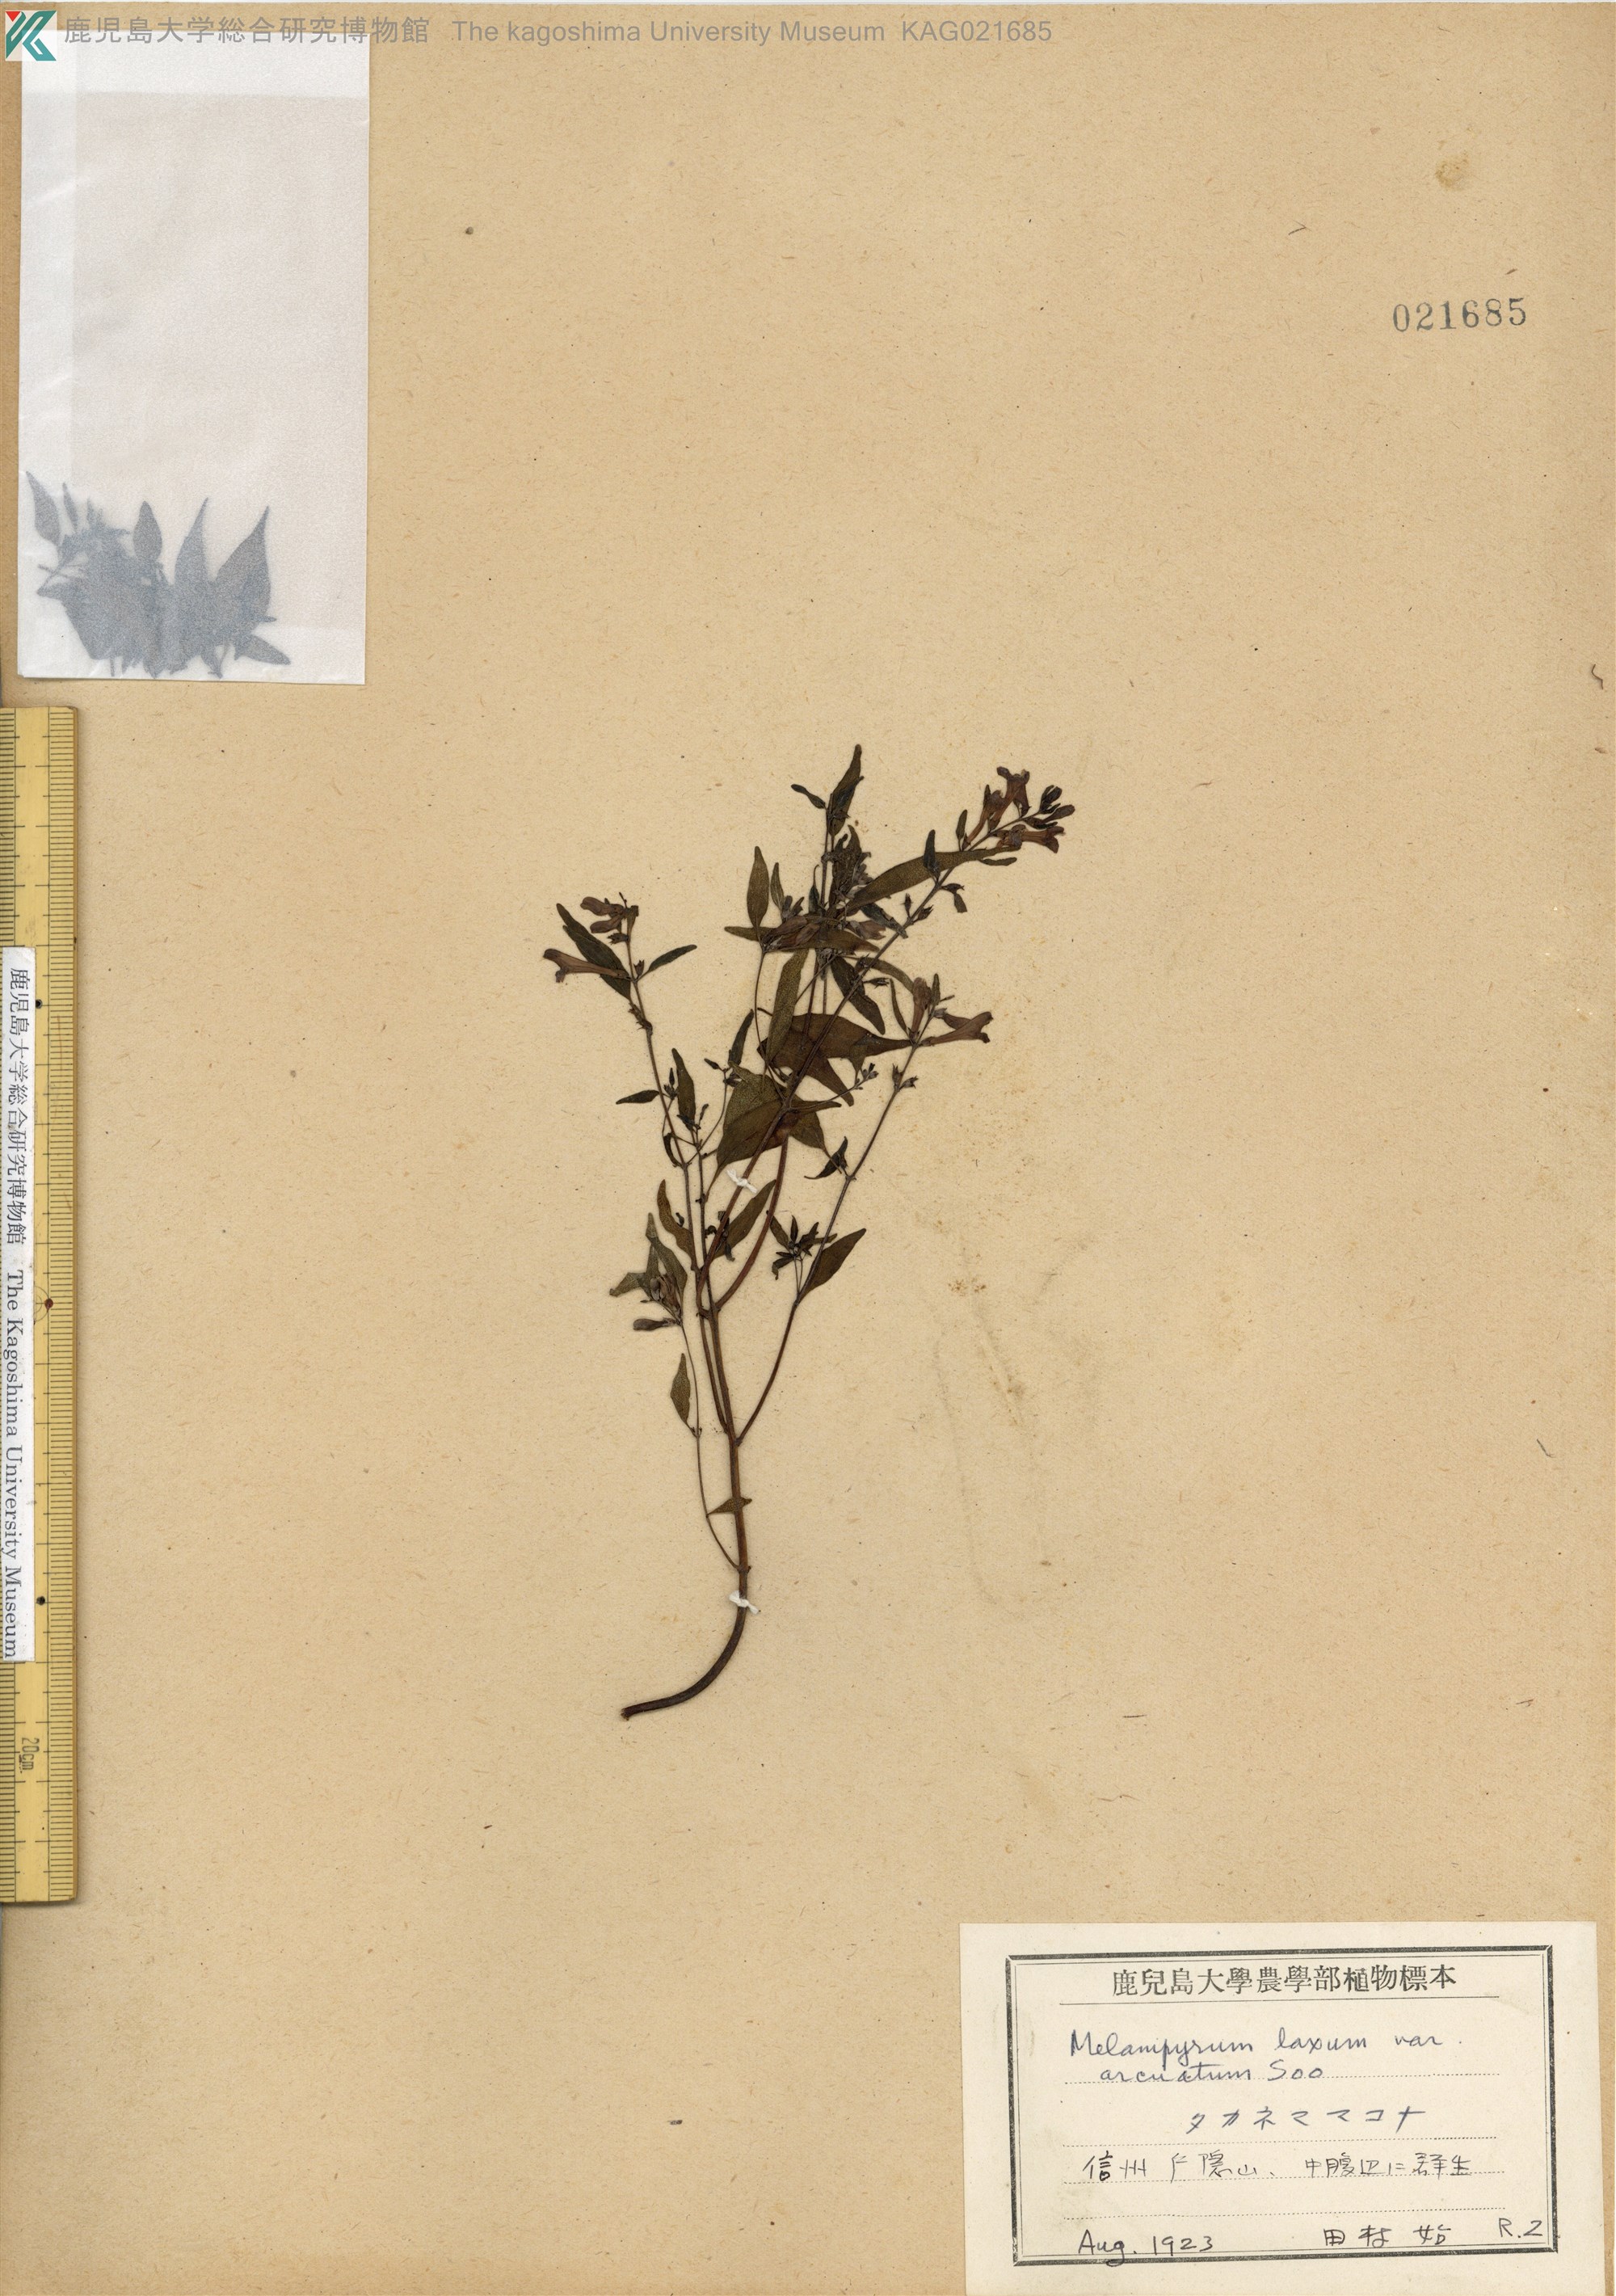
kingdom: Plantae
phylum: Tracheophyta
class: Magnoliopsida
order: Lamiales
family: Orobanchaceae
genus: Melampyrum
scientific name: Melampyrum laxum
